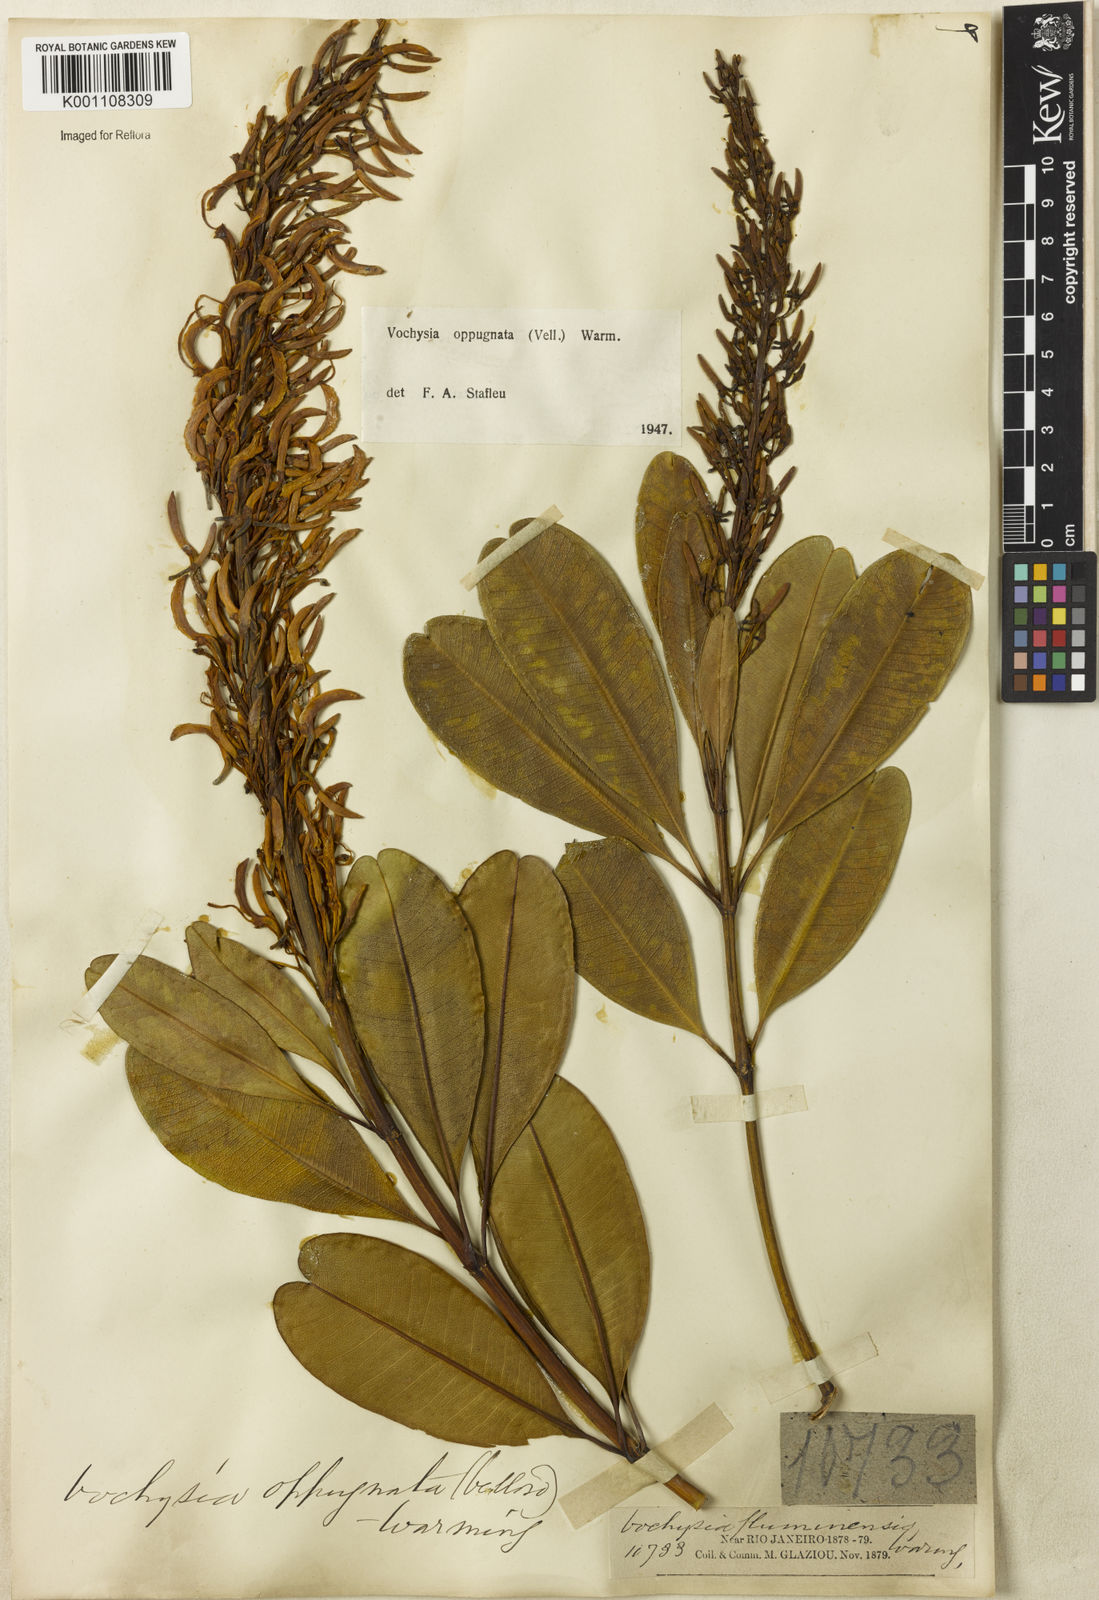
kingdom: Plantae
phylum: Tracheophyta
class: Magnoliopsida
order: Myrtales
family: Vochysiaceae
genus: Vochysia
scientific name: Vochysia oppugnata
